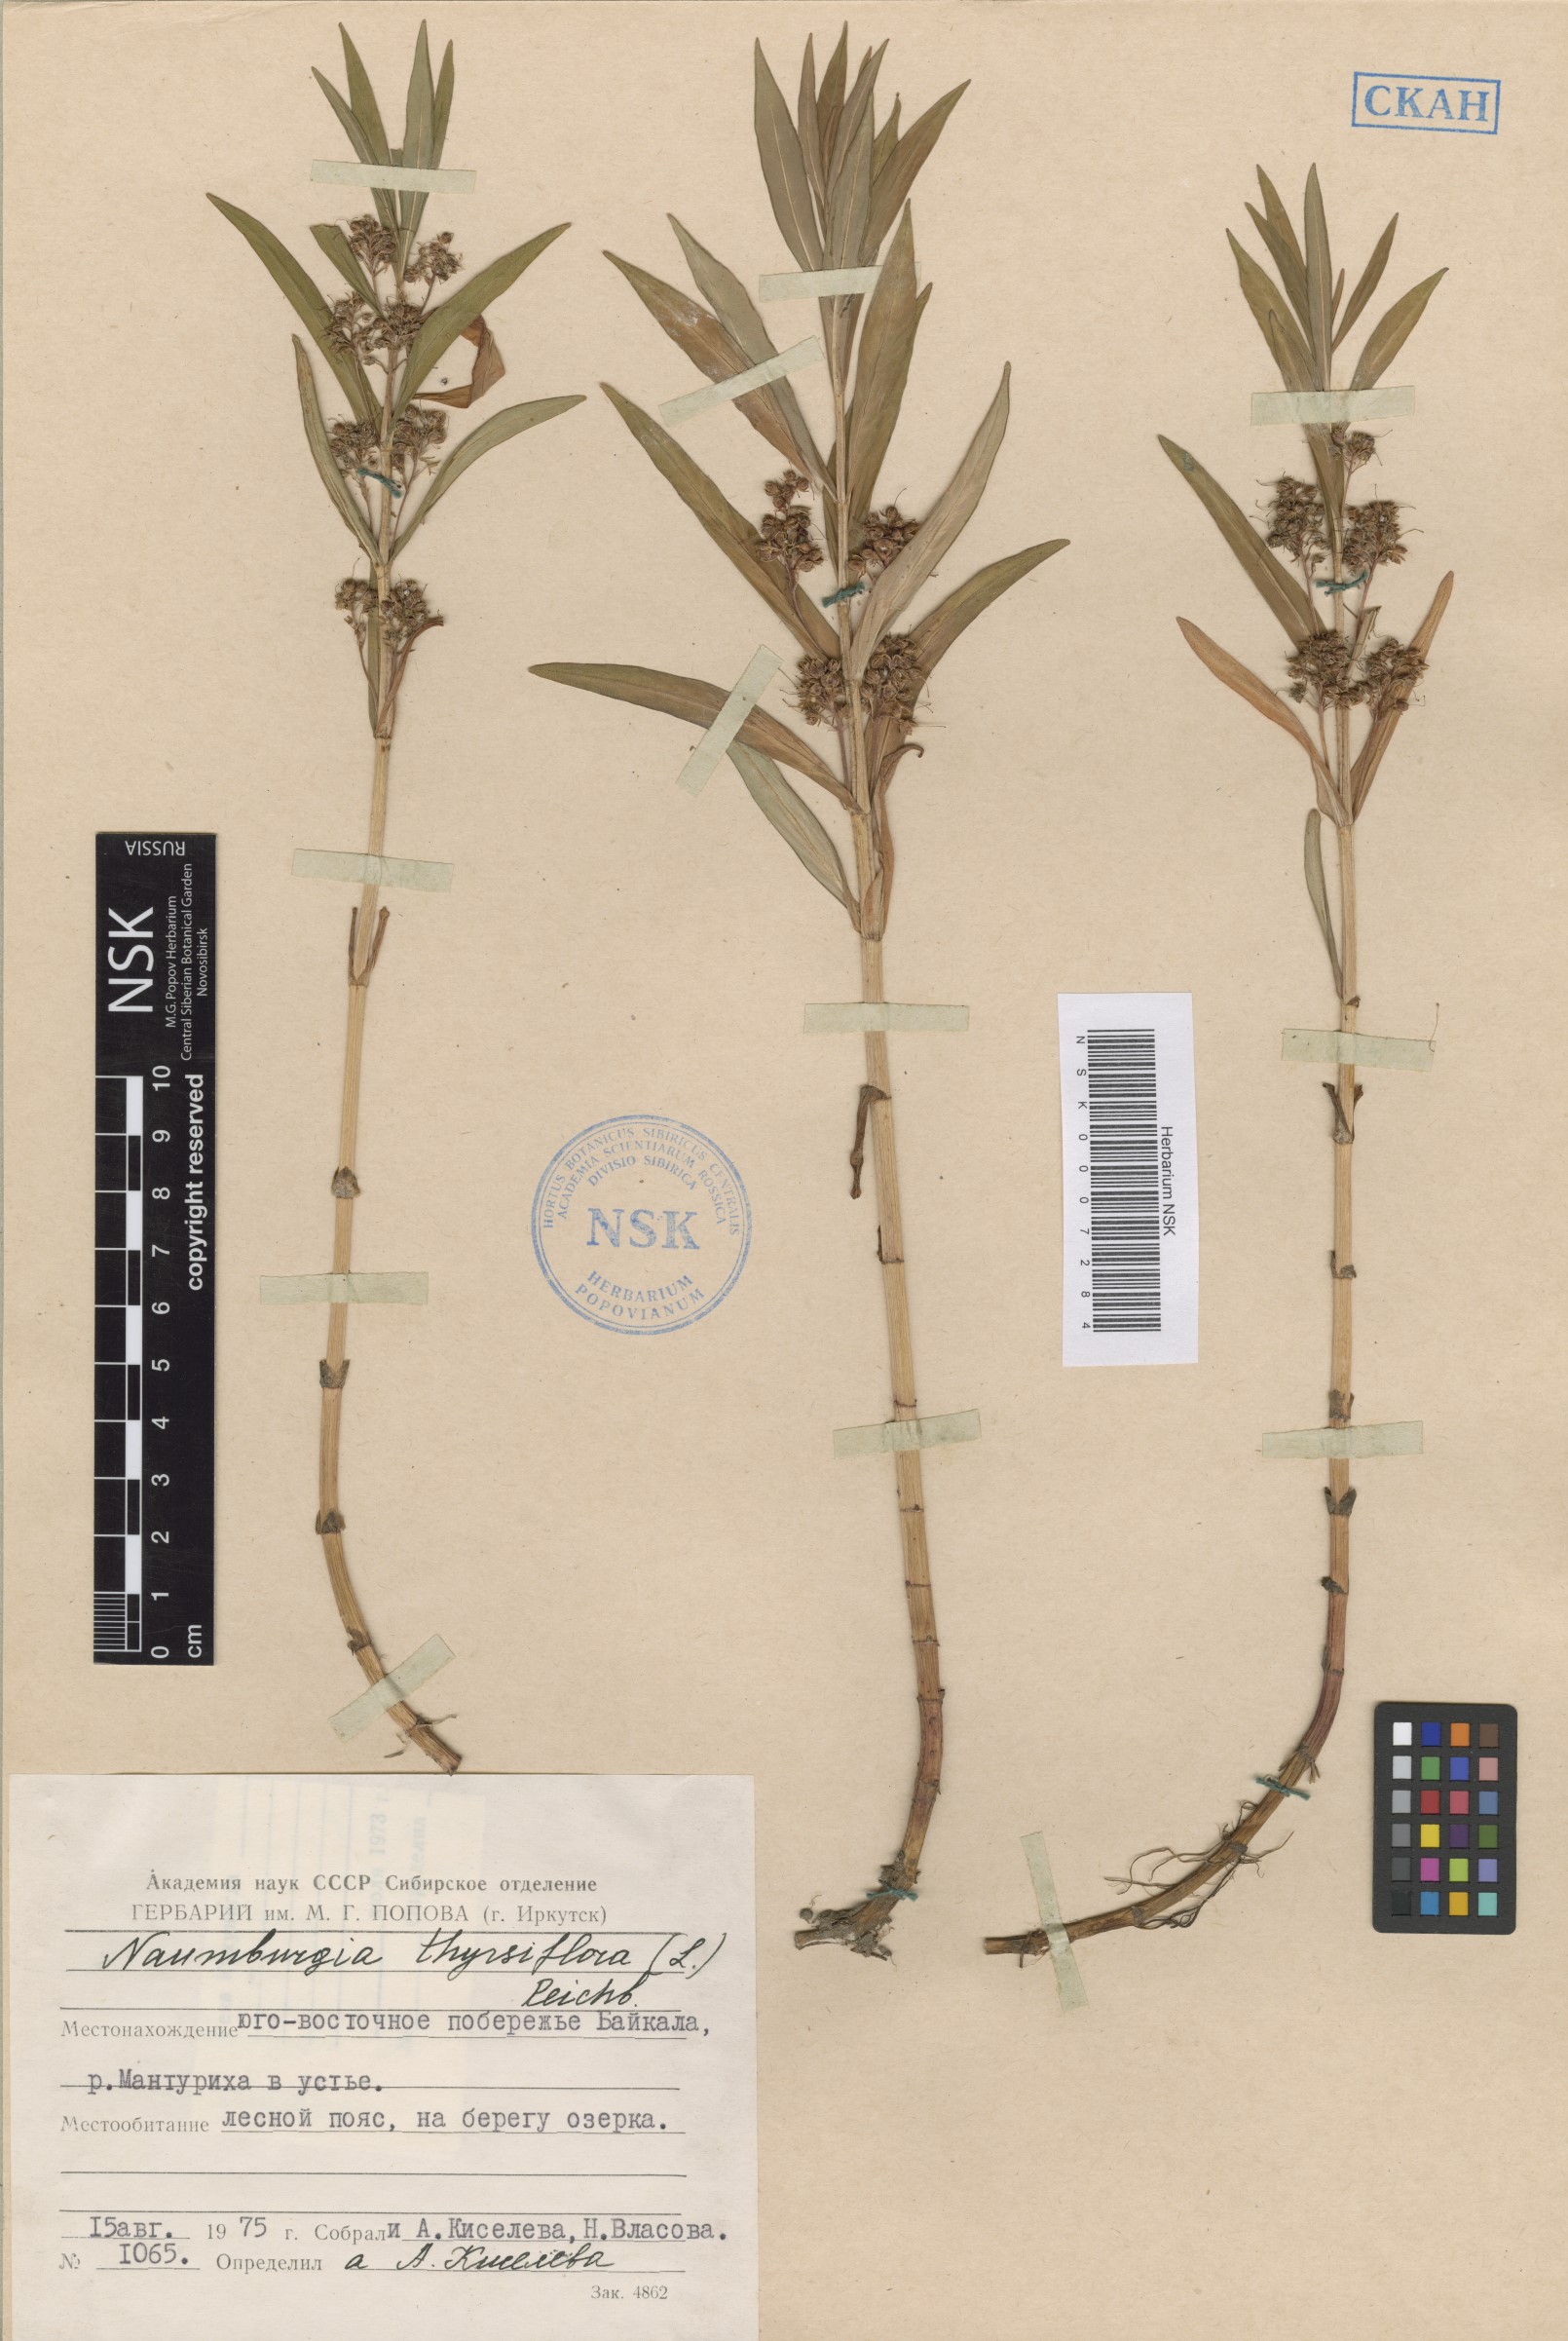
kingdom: Plantae
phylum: Tracheophyta
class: Magnoliopsida
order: Ericales
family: Primulaceae
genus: Lysimachia
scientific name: Lysimachia thyrsiflora
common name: Tufted loosestrife
